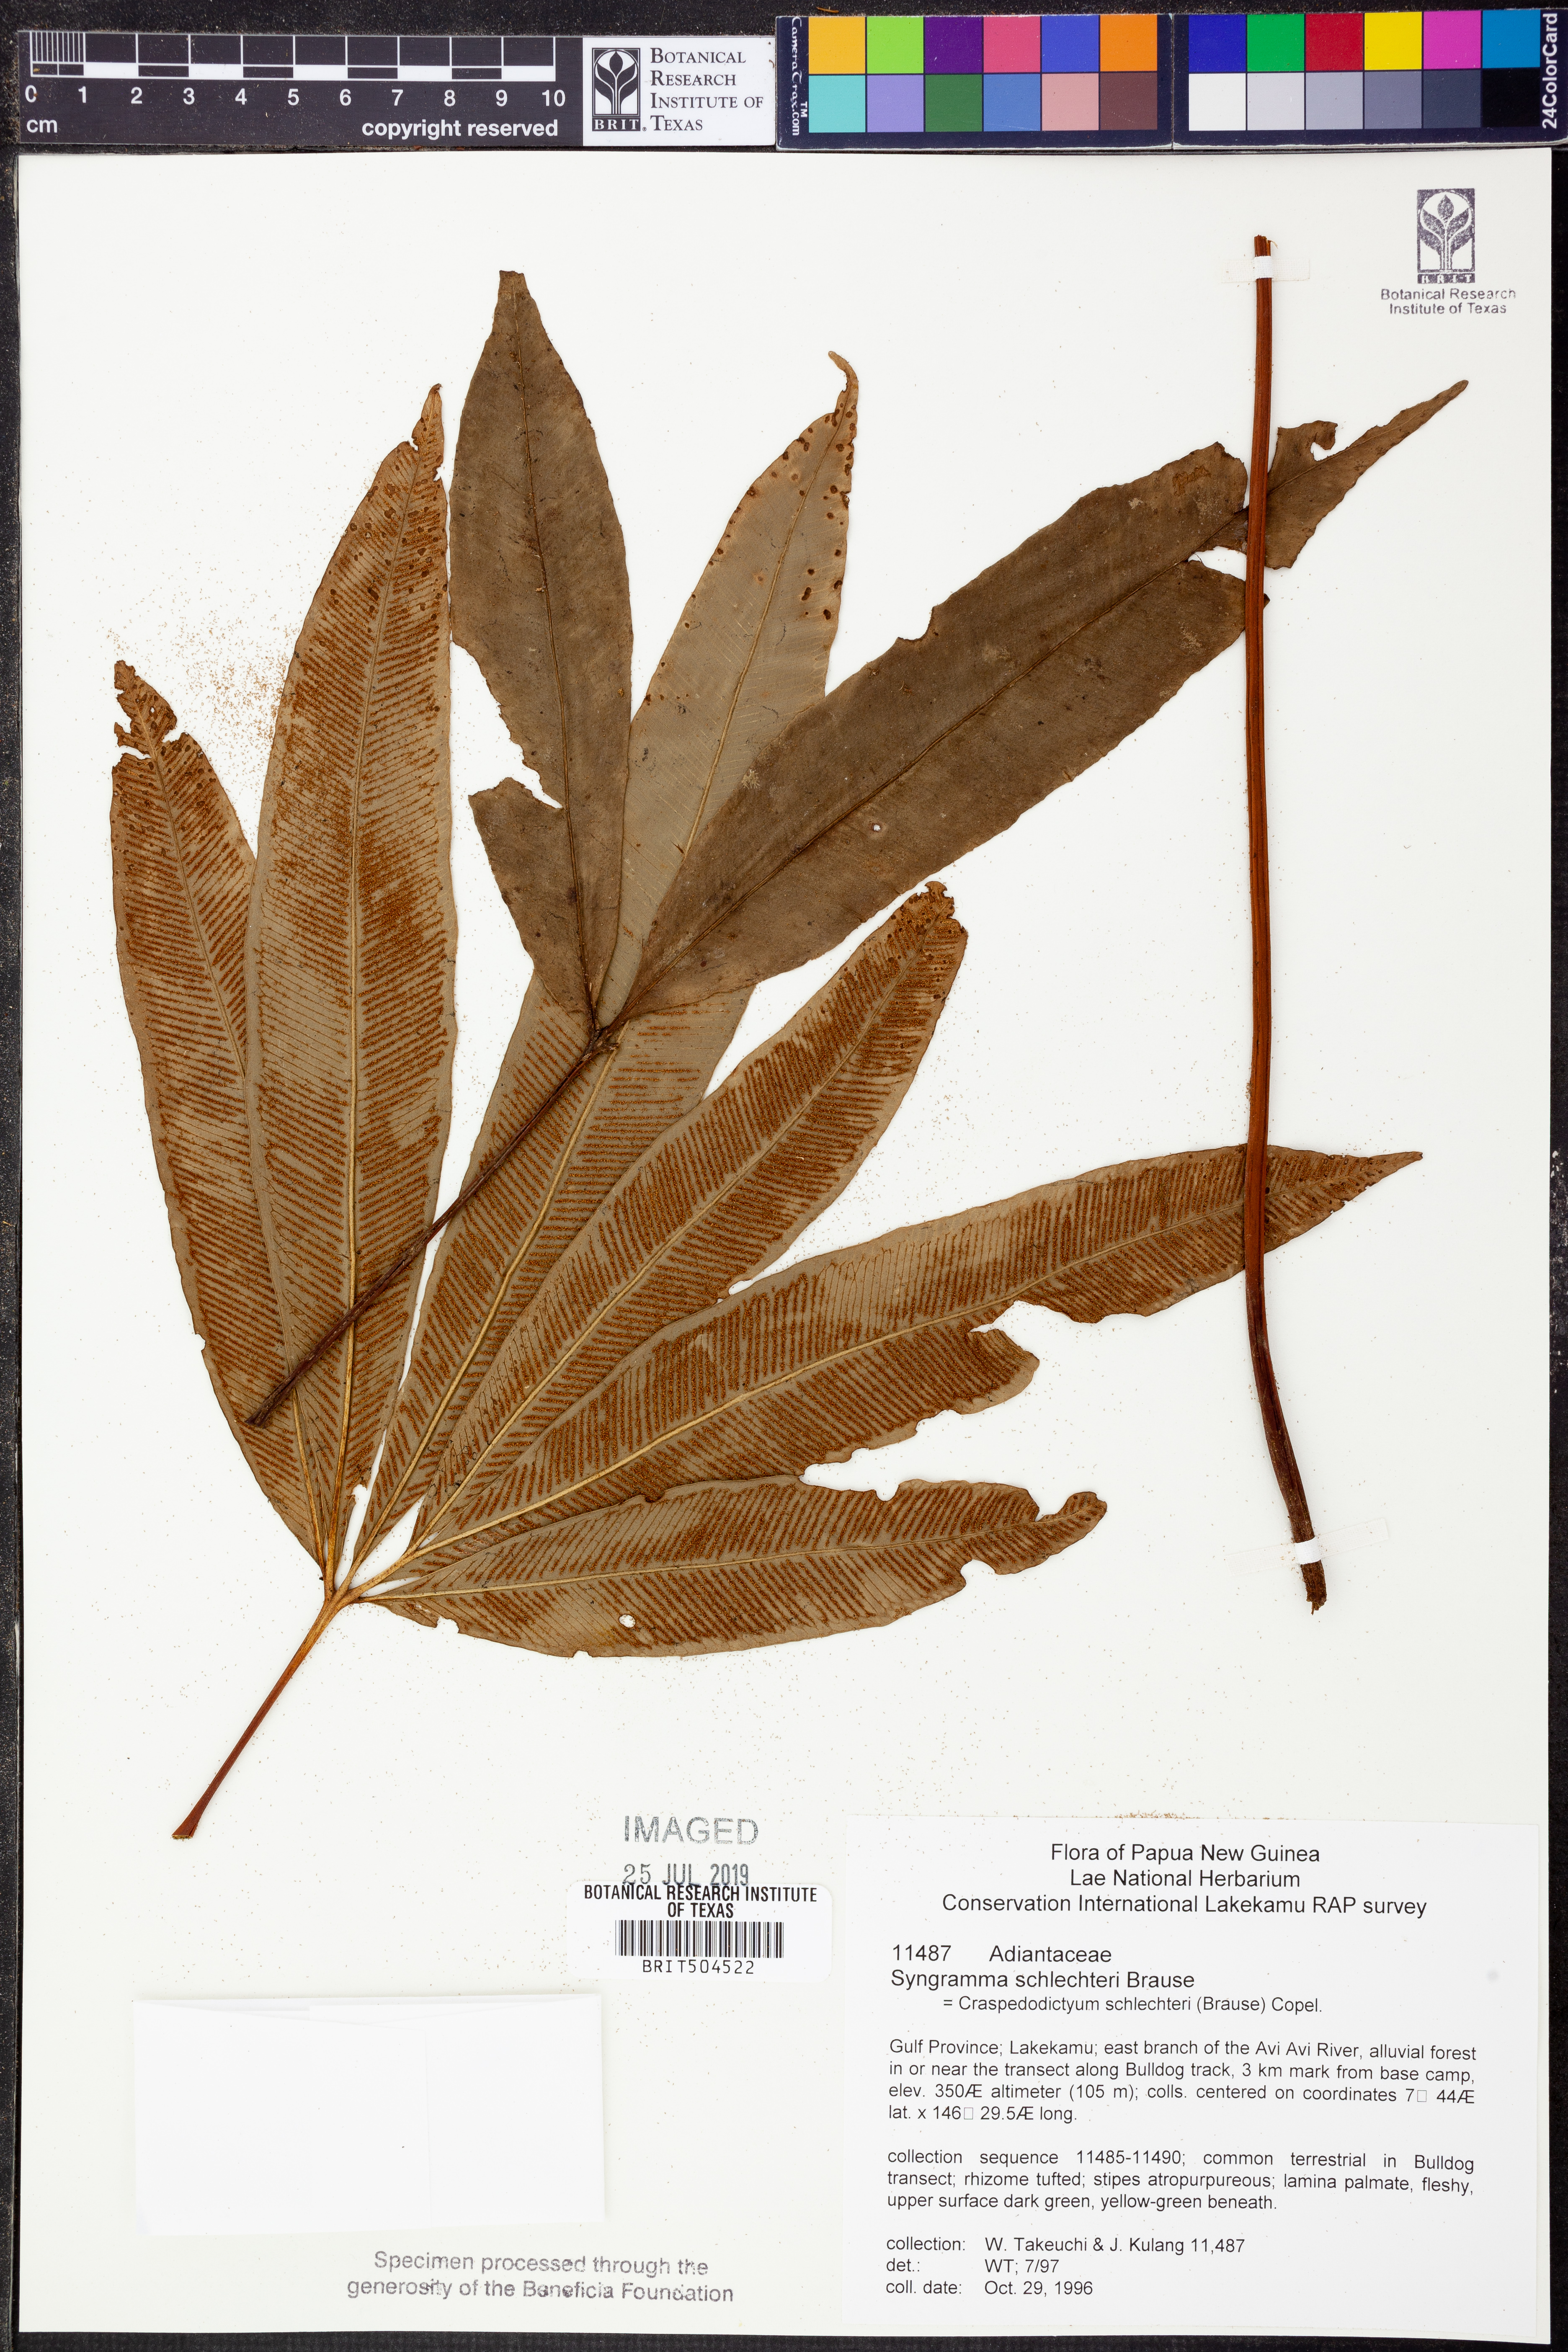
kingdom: Plantae
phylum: Tracheophyta
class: Polypodiopsida
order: Polypodiales
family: Pteridaceae
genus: Syngramma
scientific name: Syngramma quinata
